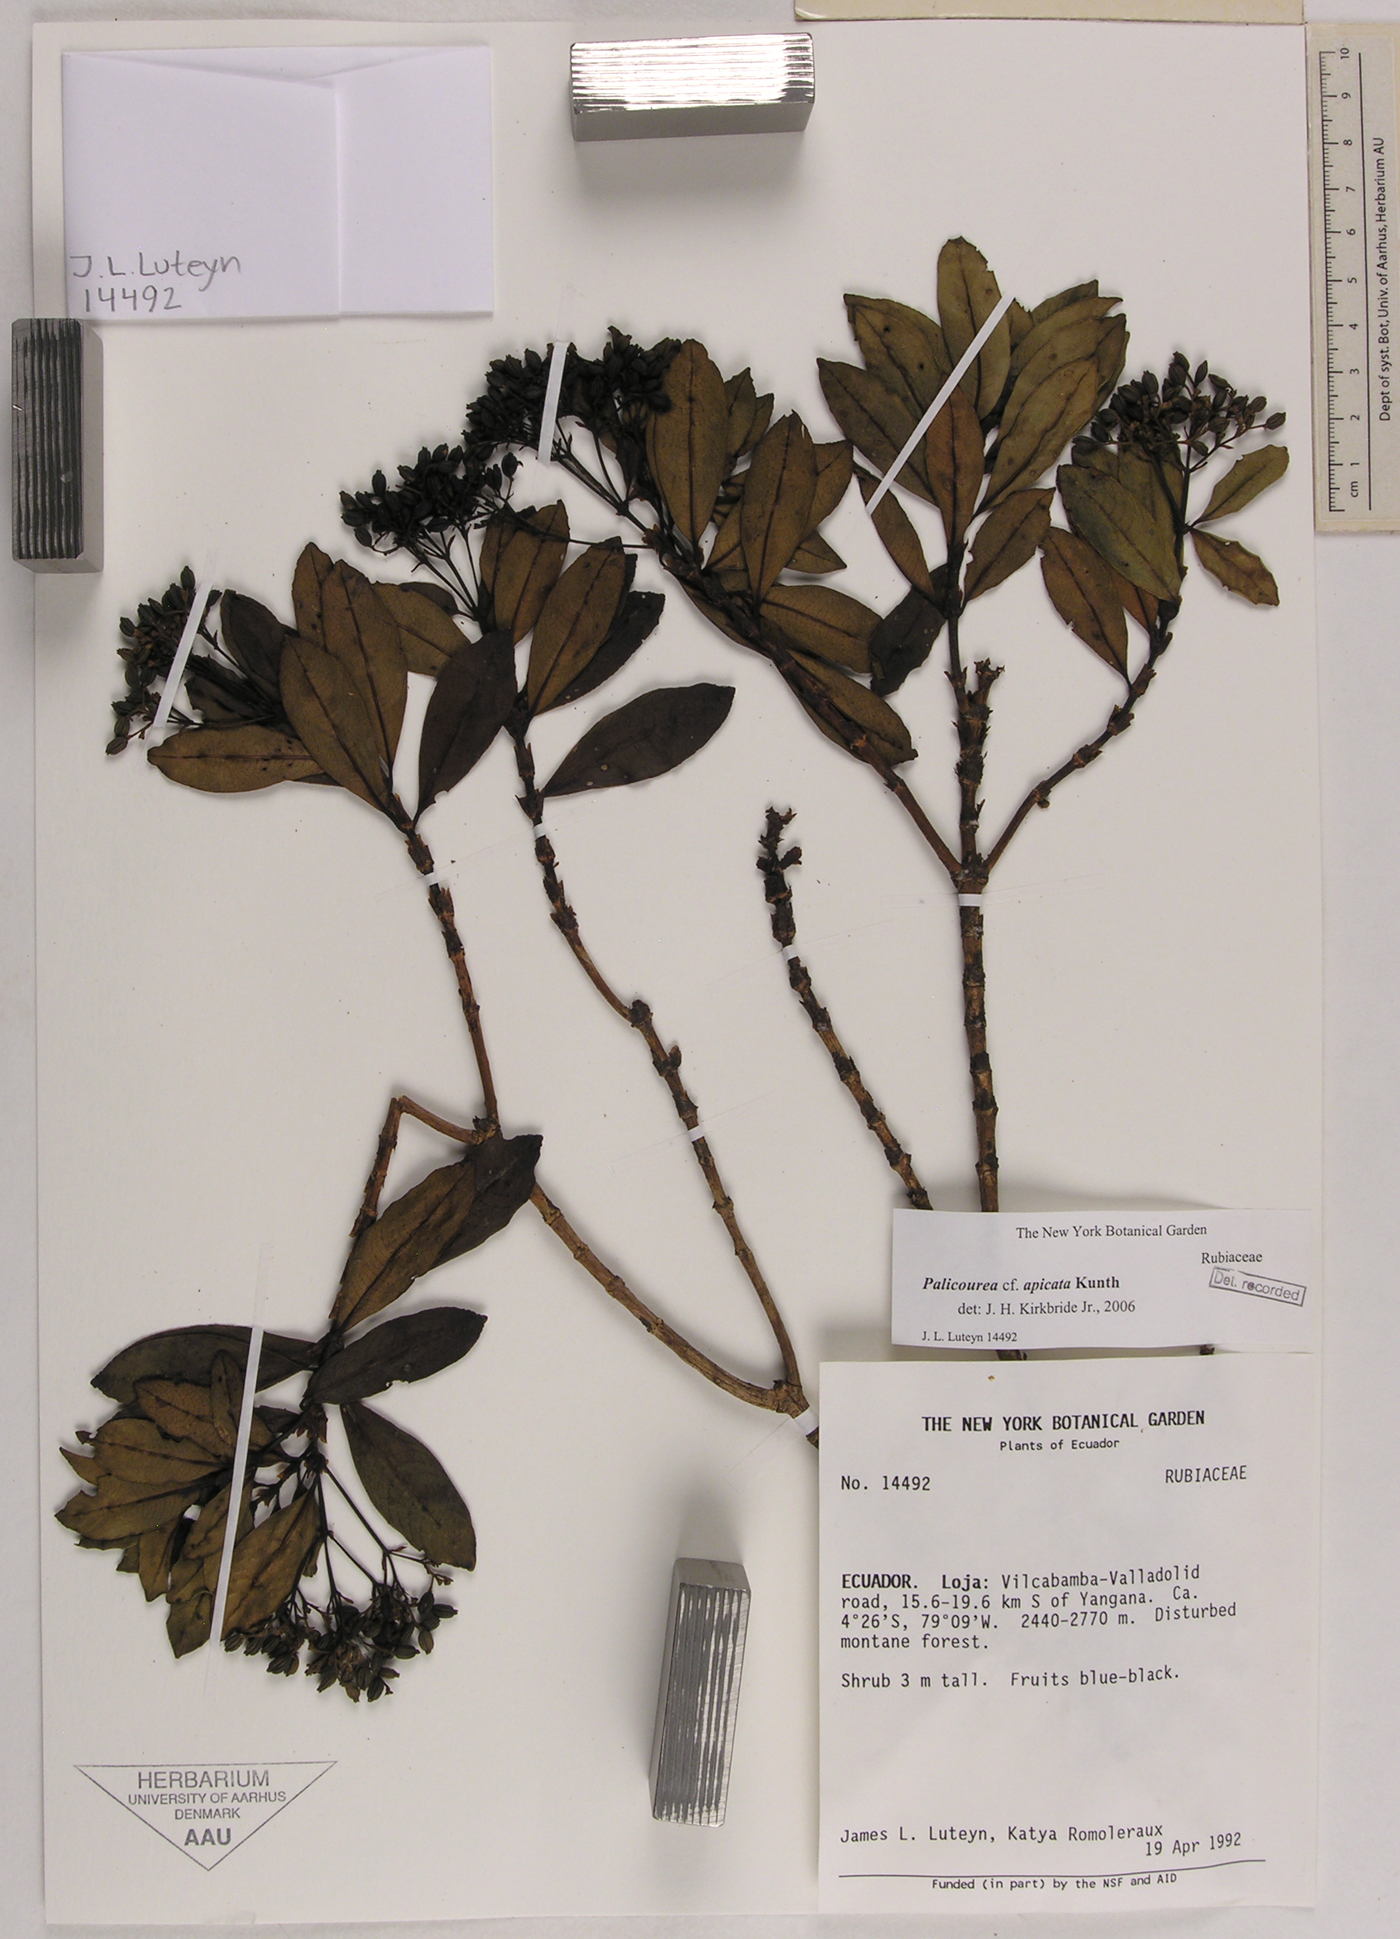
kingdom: Plantae
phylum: Tracheophyta
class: Magnoliopsida
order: Gentianales
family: Rubiaceae
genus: Palicourea
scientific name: Palicourea apicata
